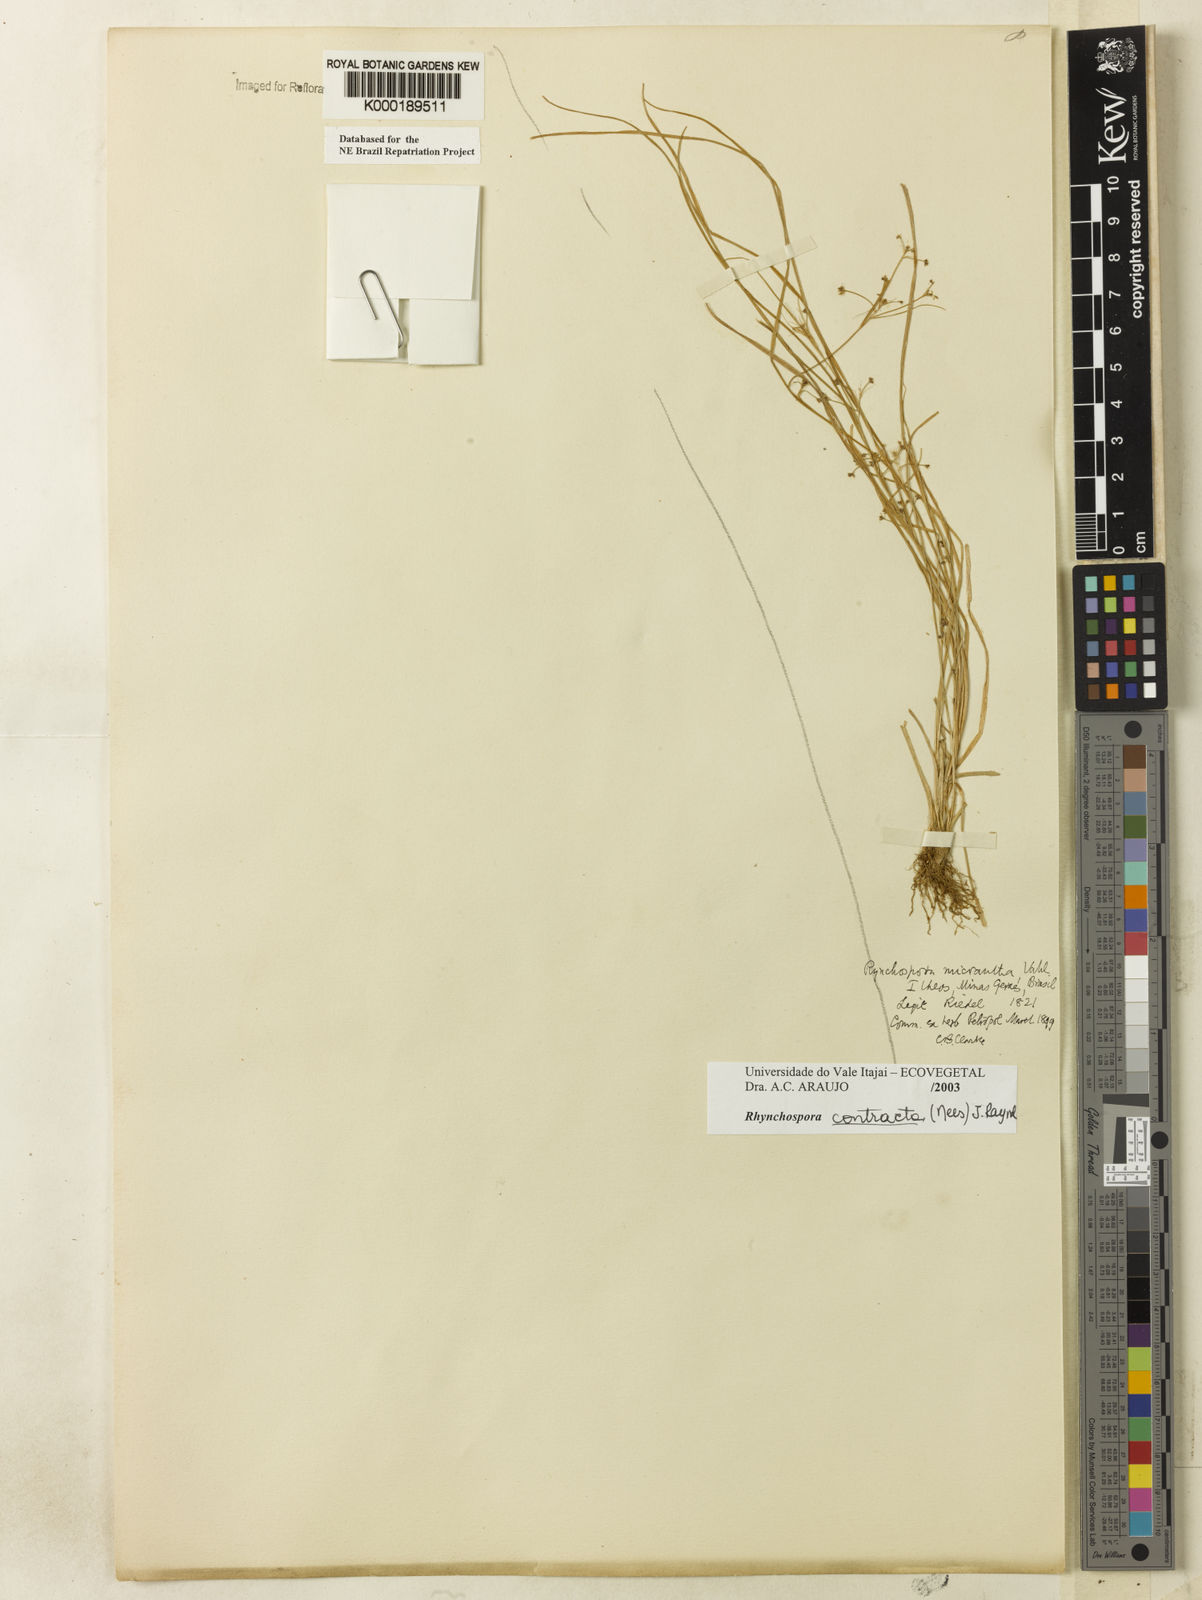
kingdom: Plantae
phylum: Tracheophyta
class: Liliopsida
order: Poales
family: Cyperaceae
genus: Rhynchospora
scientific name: Rhynchospora contracta
